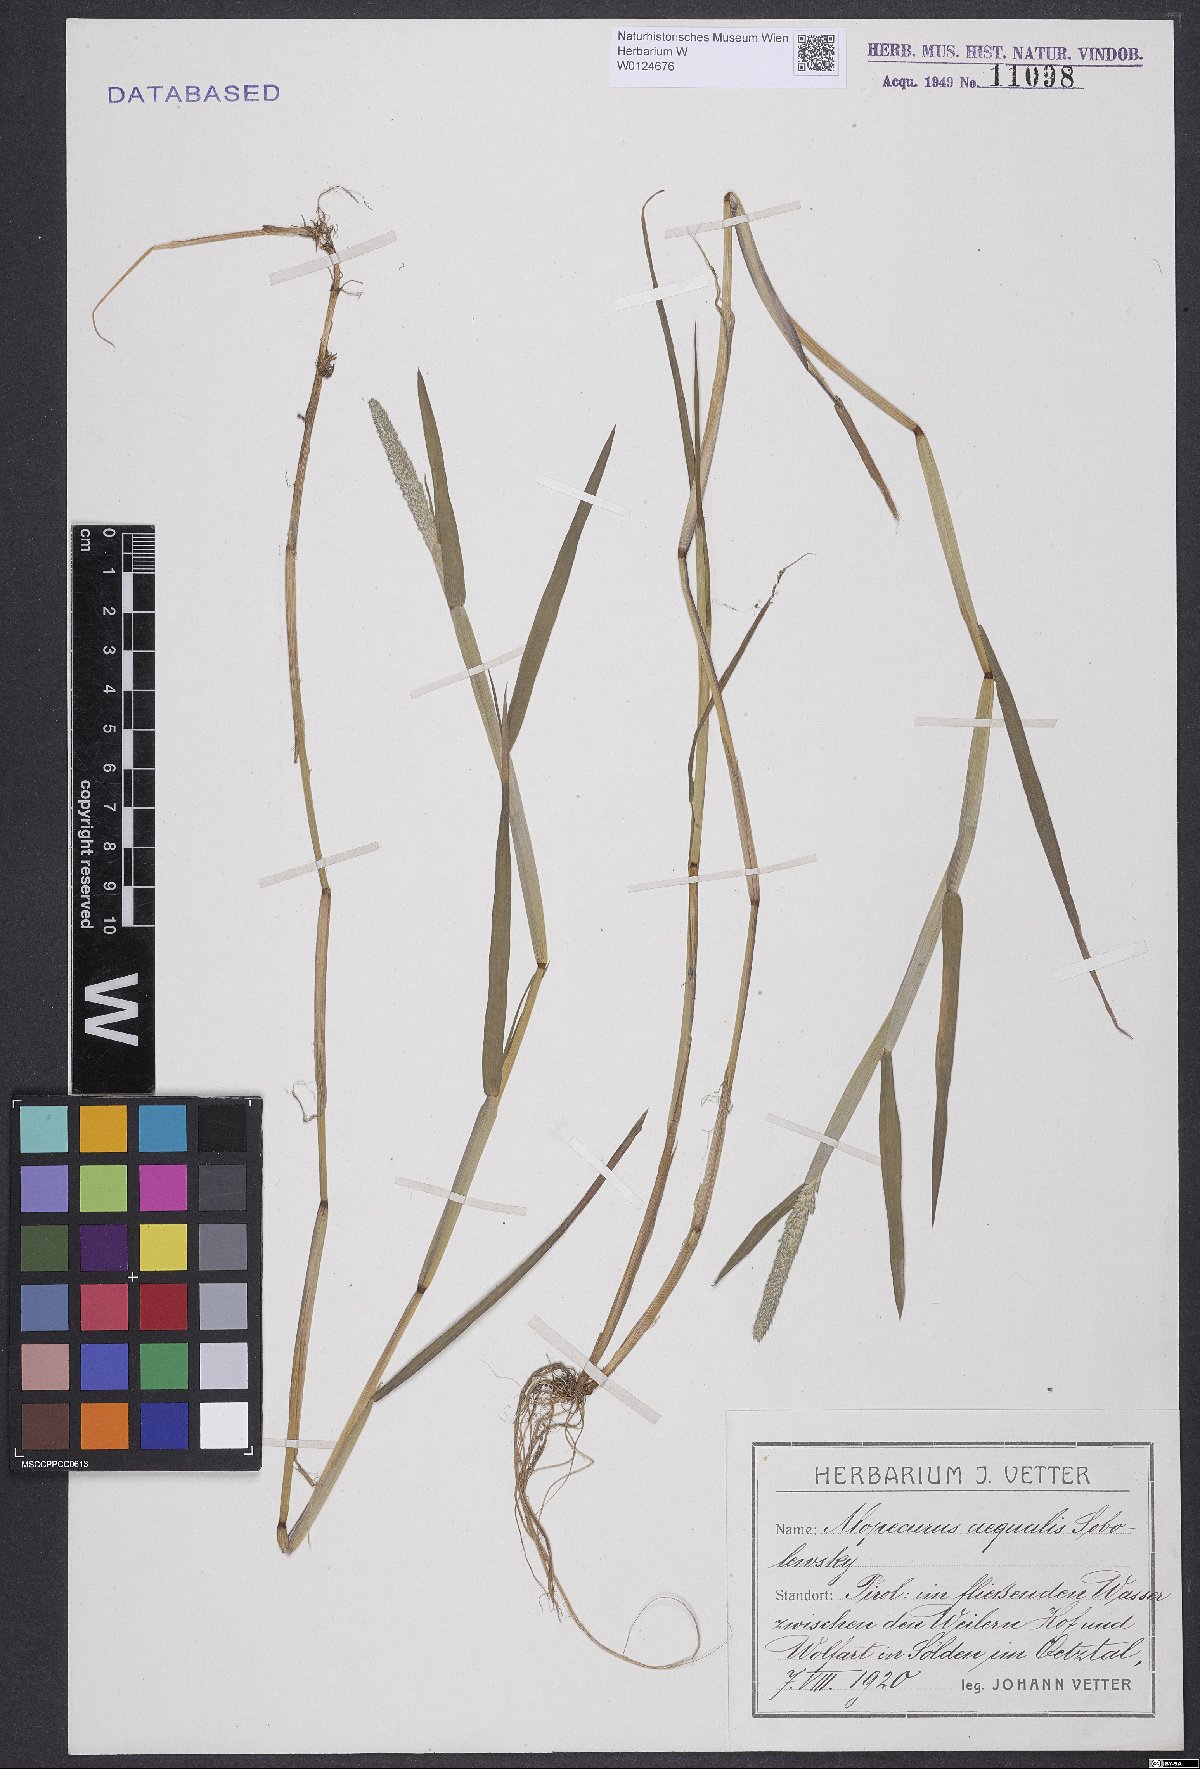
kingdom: Plantae
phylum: Tracheophyta
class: Liliopsida
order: Poales
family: Poaceae
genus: Alopecurus
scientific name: Alopecurus aequalis
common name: Orange foxtail
